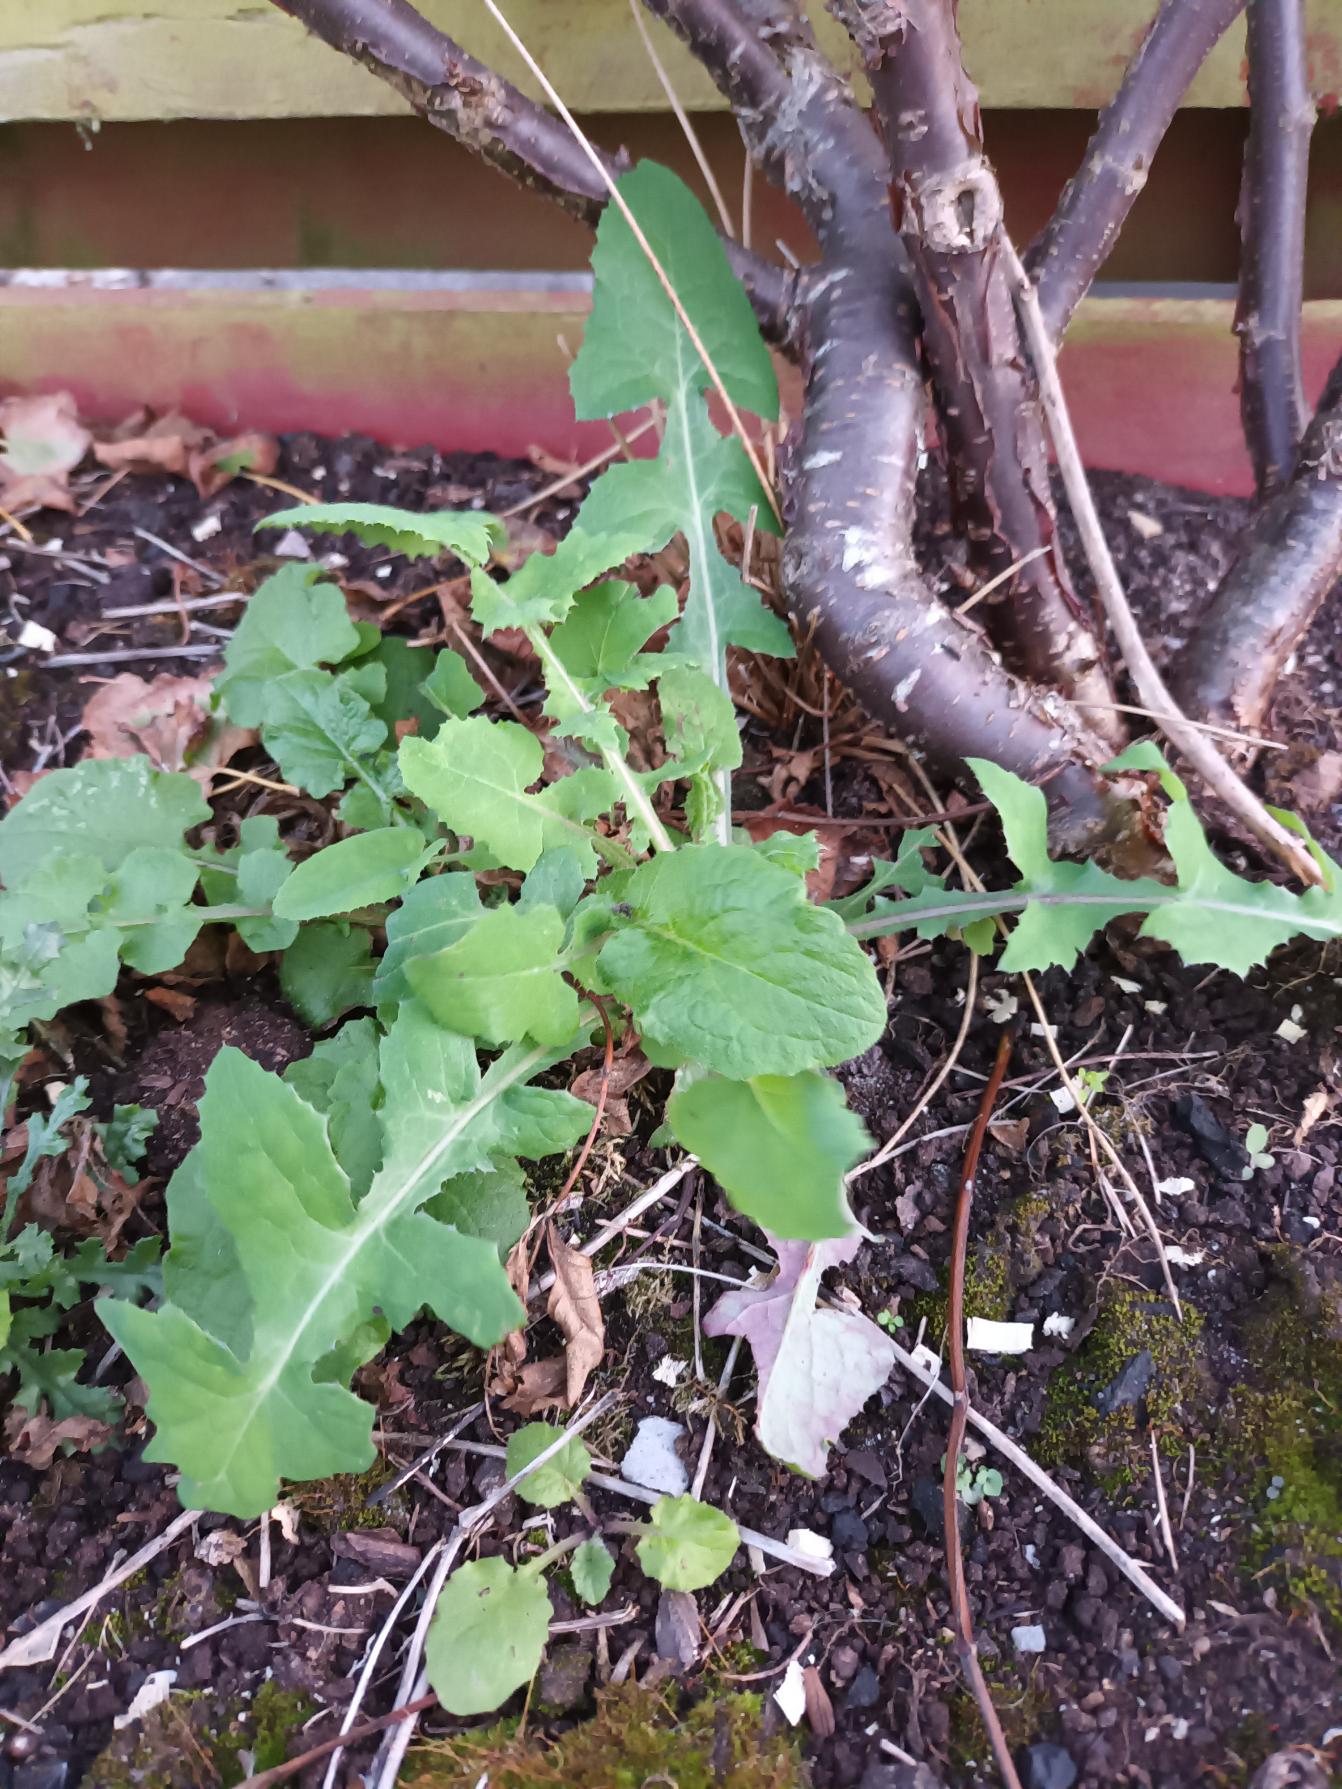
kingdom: Plantae
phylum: Tracheophyta
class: Magnoliopsida
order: Asterales
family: Asteraceae
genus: Sonchus
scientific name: Sonchus oleraceus
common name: Almindelig svinemælk
